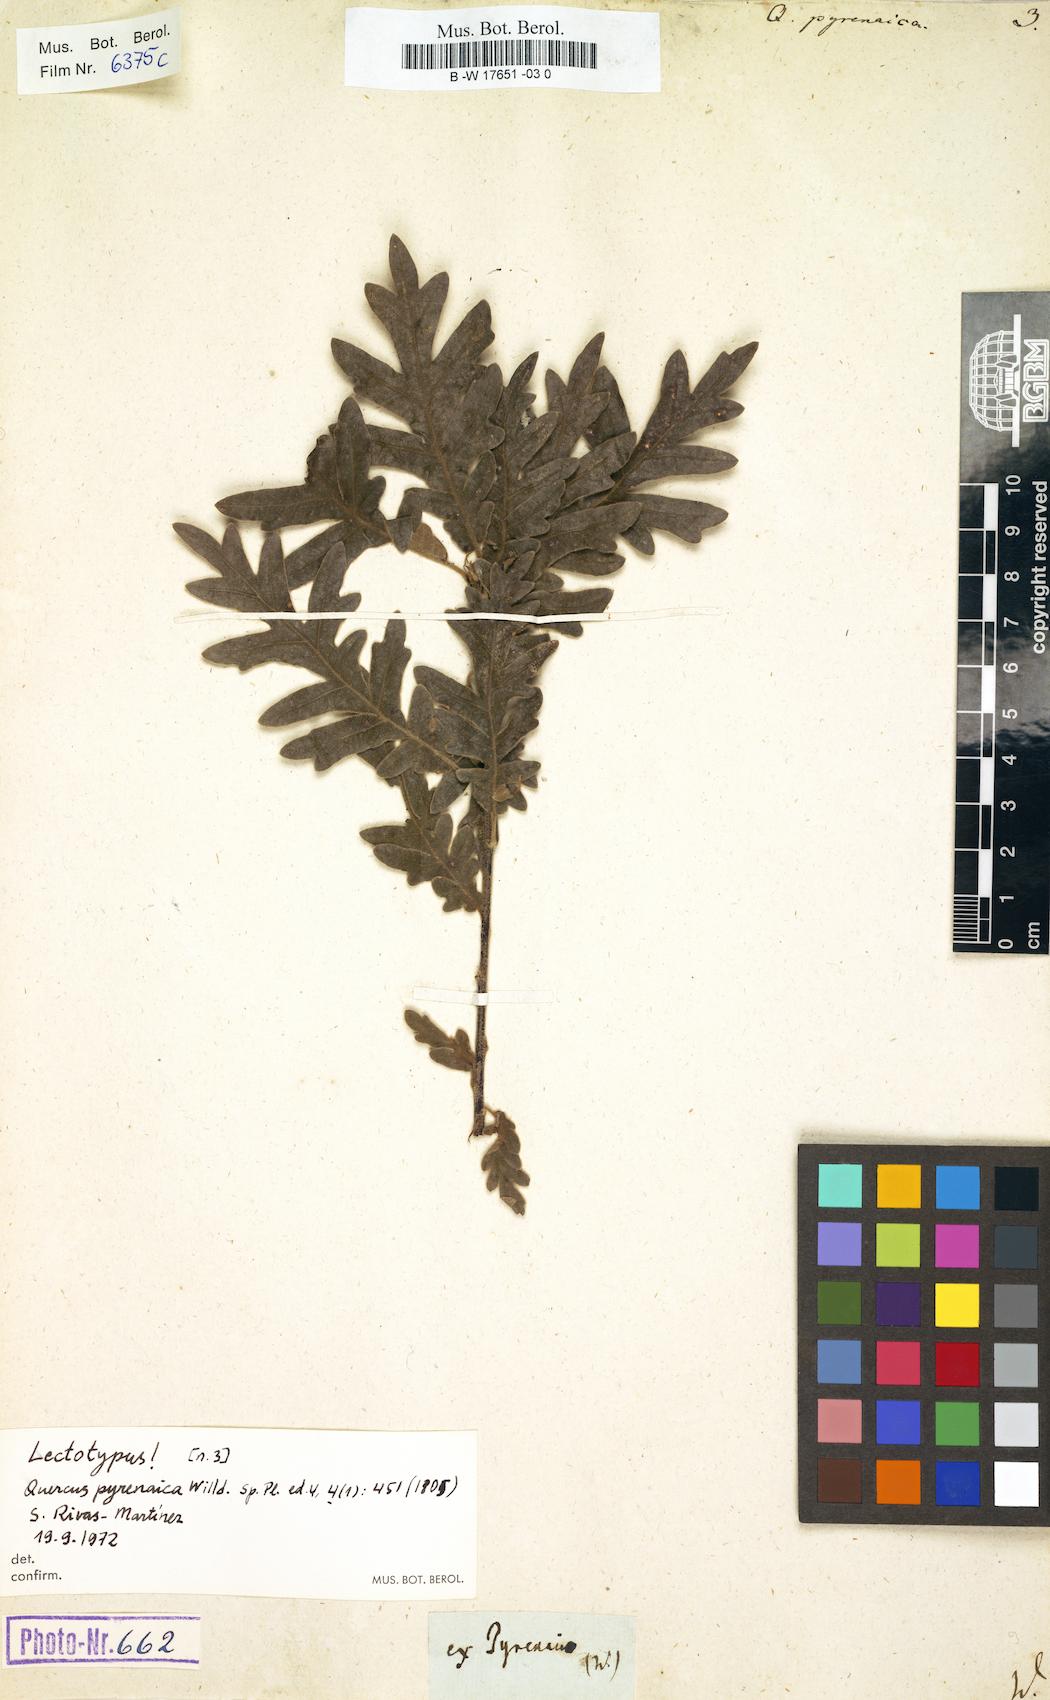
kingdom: Plantae
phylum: Tracheophyta
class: Magnoliopsida
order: Fagales
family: Fagaceae
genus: Quercus
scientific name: Quercus pyrenaica
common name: Pyrenean oak
